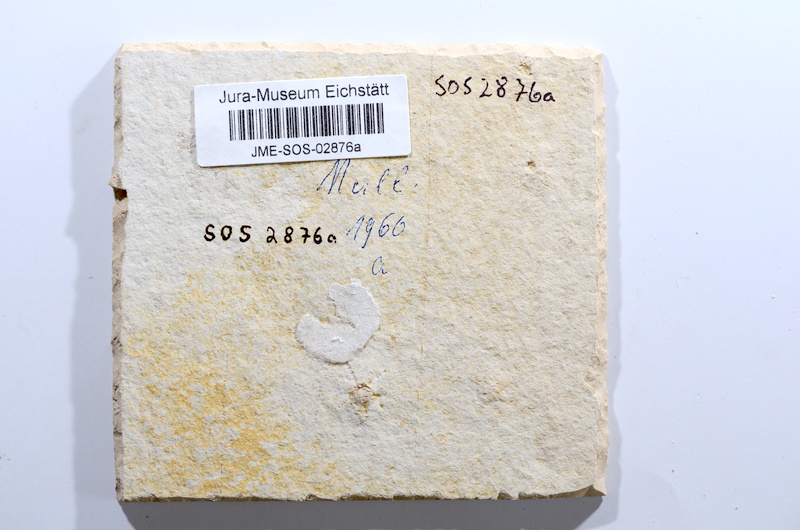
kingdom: Animalia
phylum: Chordata
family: Ascalaboidae
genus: Tharsis
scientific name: Tharsis dubius
